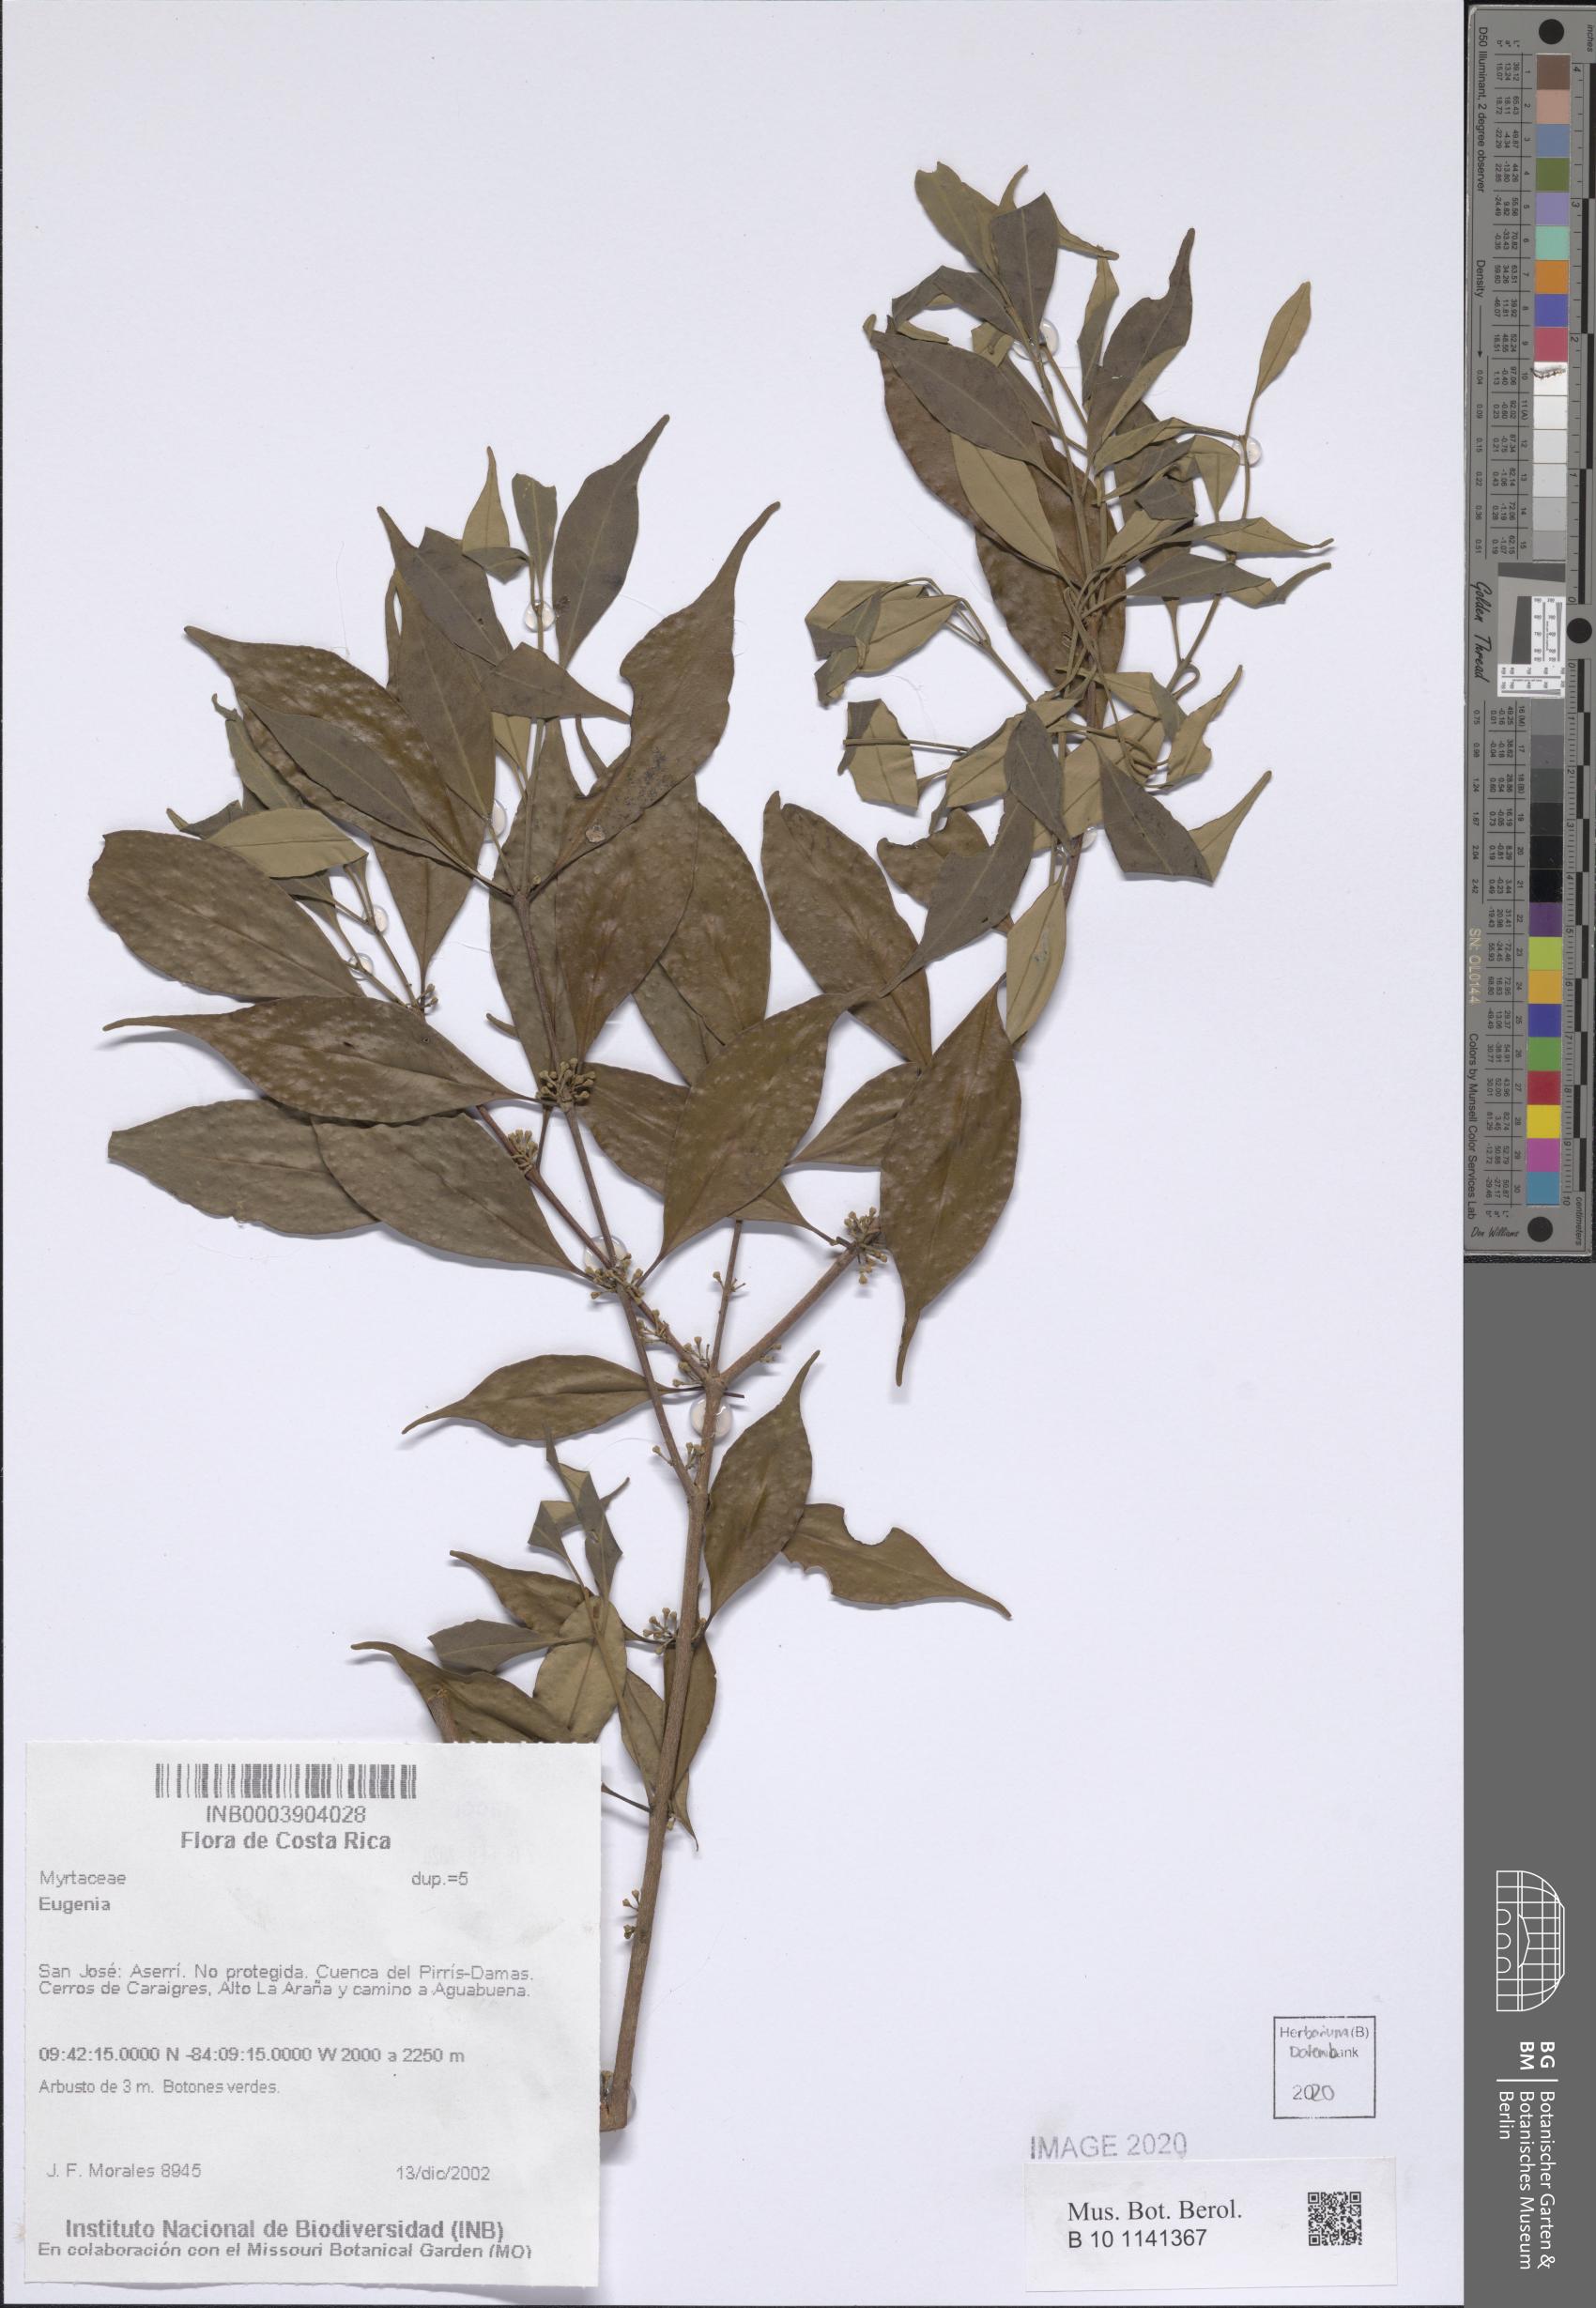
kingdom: Plantae
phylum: Tracheophyta
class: Magnoliopsida
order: Myrtales
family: Myrtaceae
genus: Eugenia
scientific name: Eugenia
